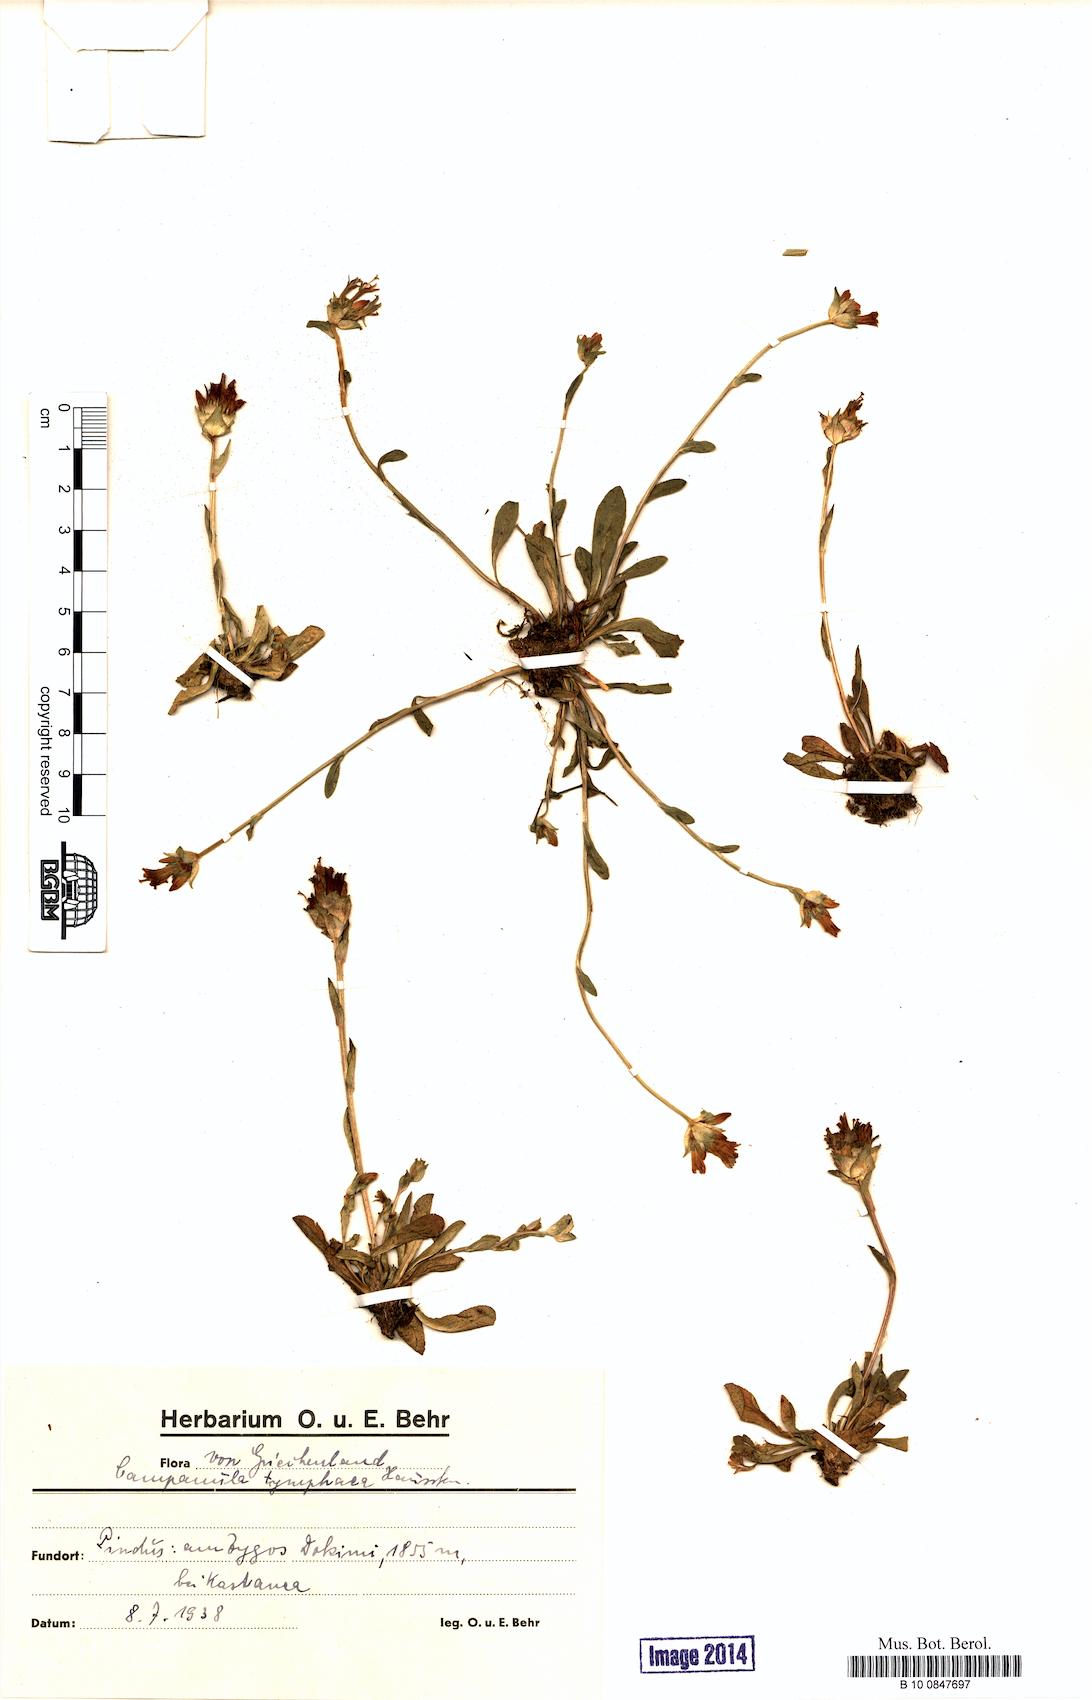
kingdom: Plantae
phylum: Tracheophyta
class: Magnoliopsida
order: Asterales
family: Campanulaceae
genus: Campanula
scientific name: Campanula tymphaea
